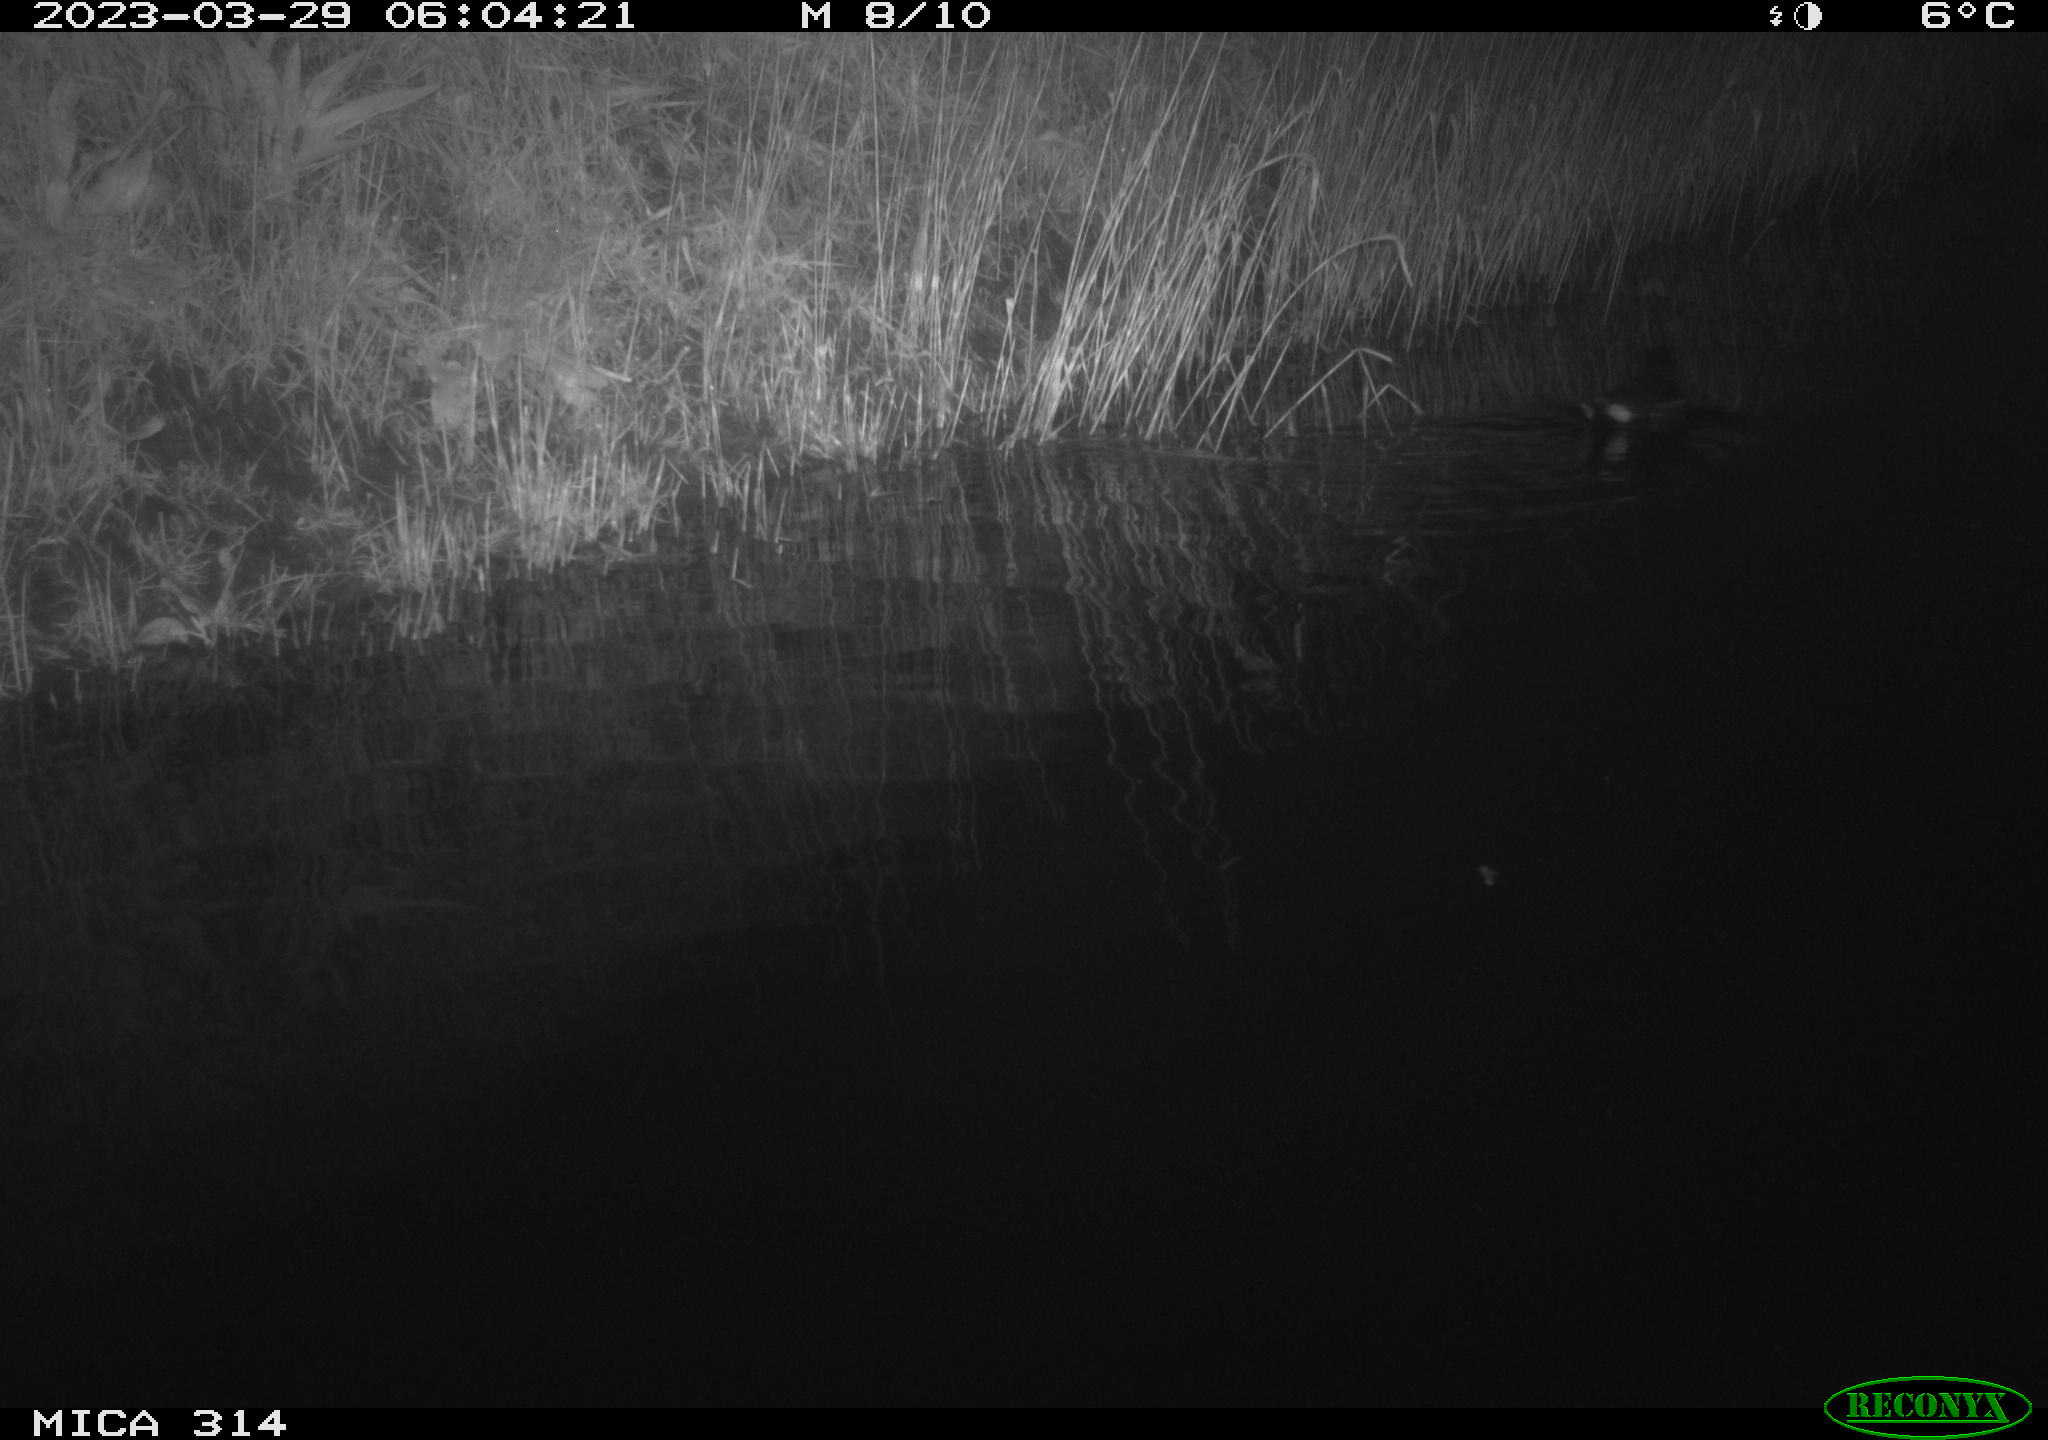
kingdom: Animalia
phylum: Chordata
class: Aves
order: Gruiformes
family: Rallidae
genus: Gallinula
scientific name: Gallinula chloropus
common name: Common moorhen
